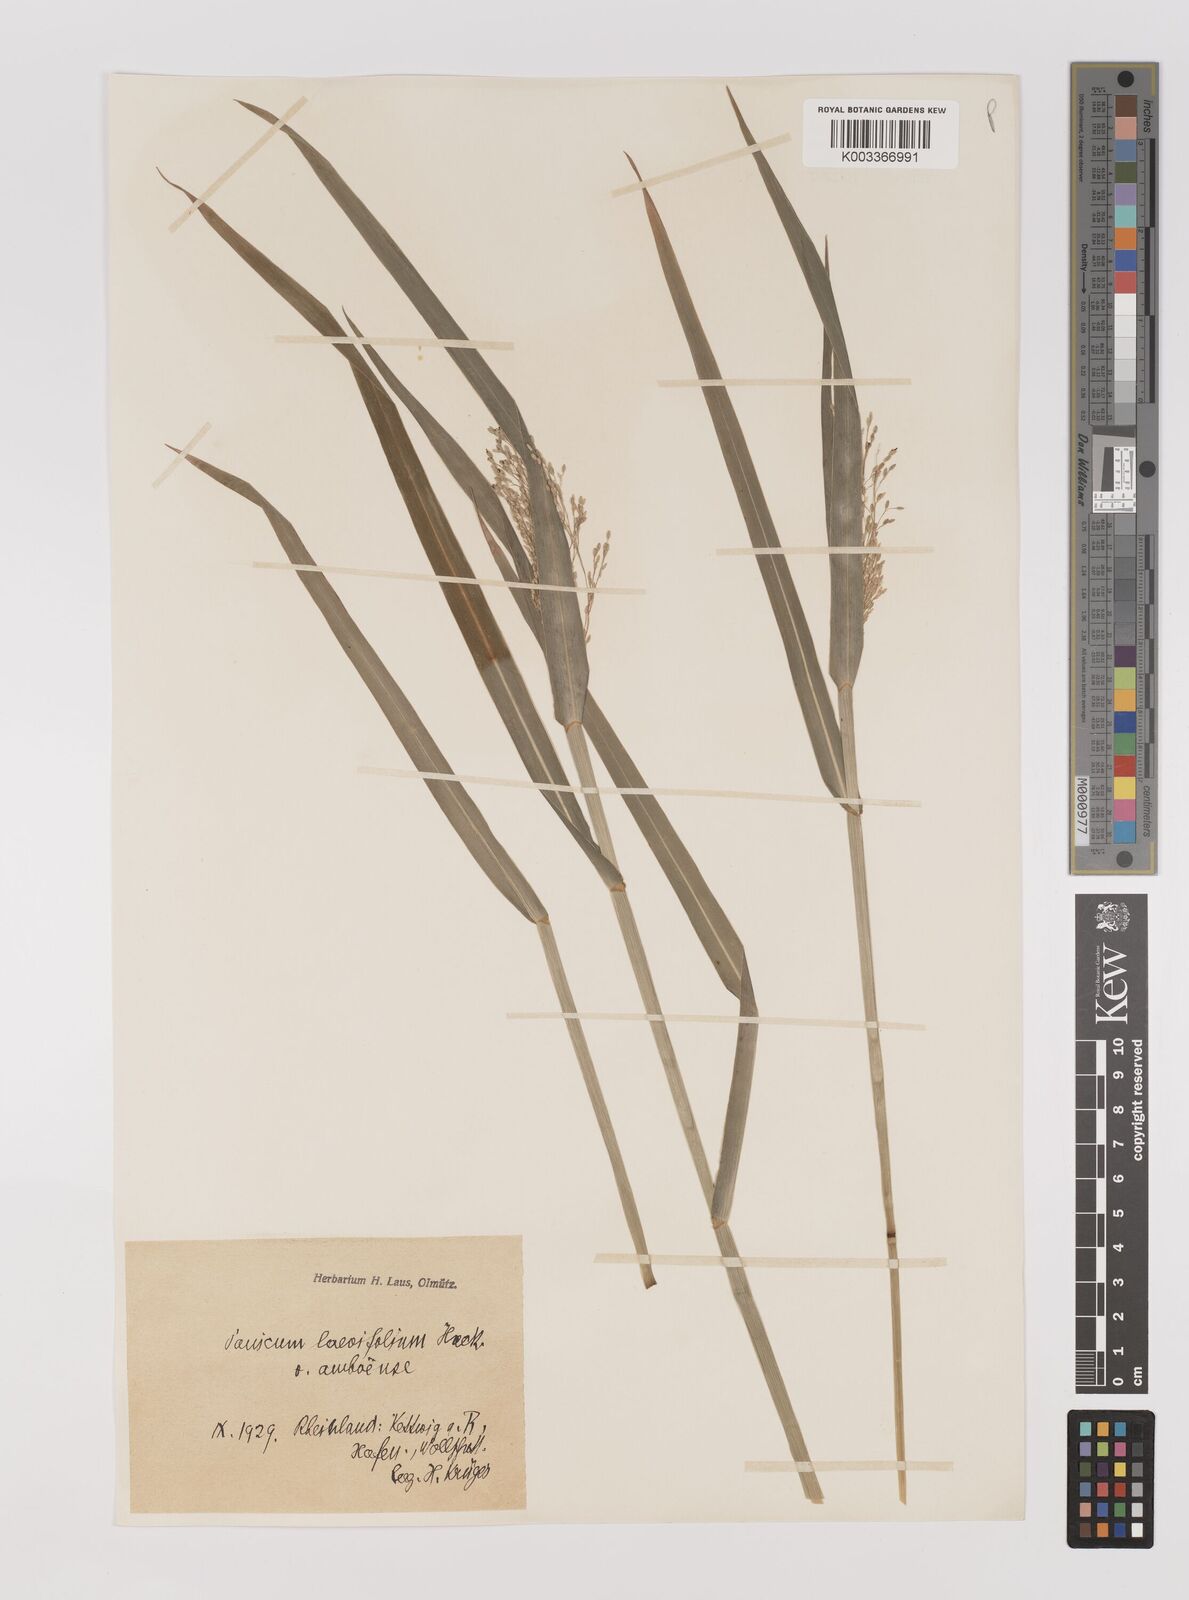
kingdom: Plantae
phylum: Tracheophyta
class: Liliopsida
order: Poales
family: Poaceae
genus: Panicum
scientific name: Panicum
